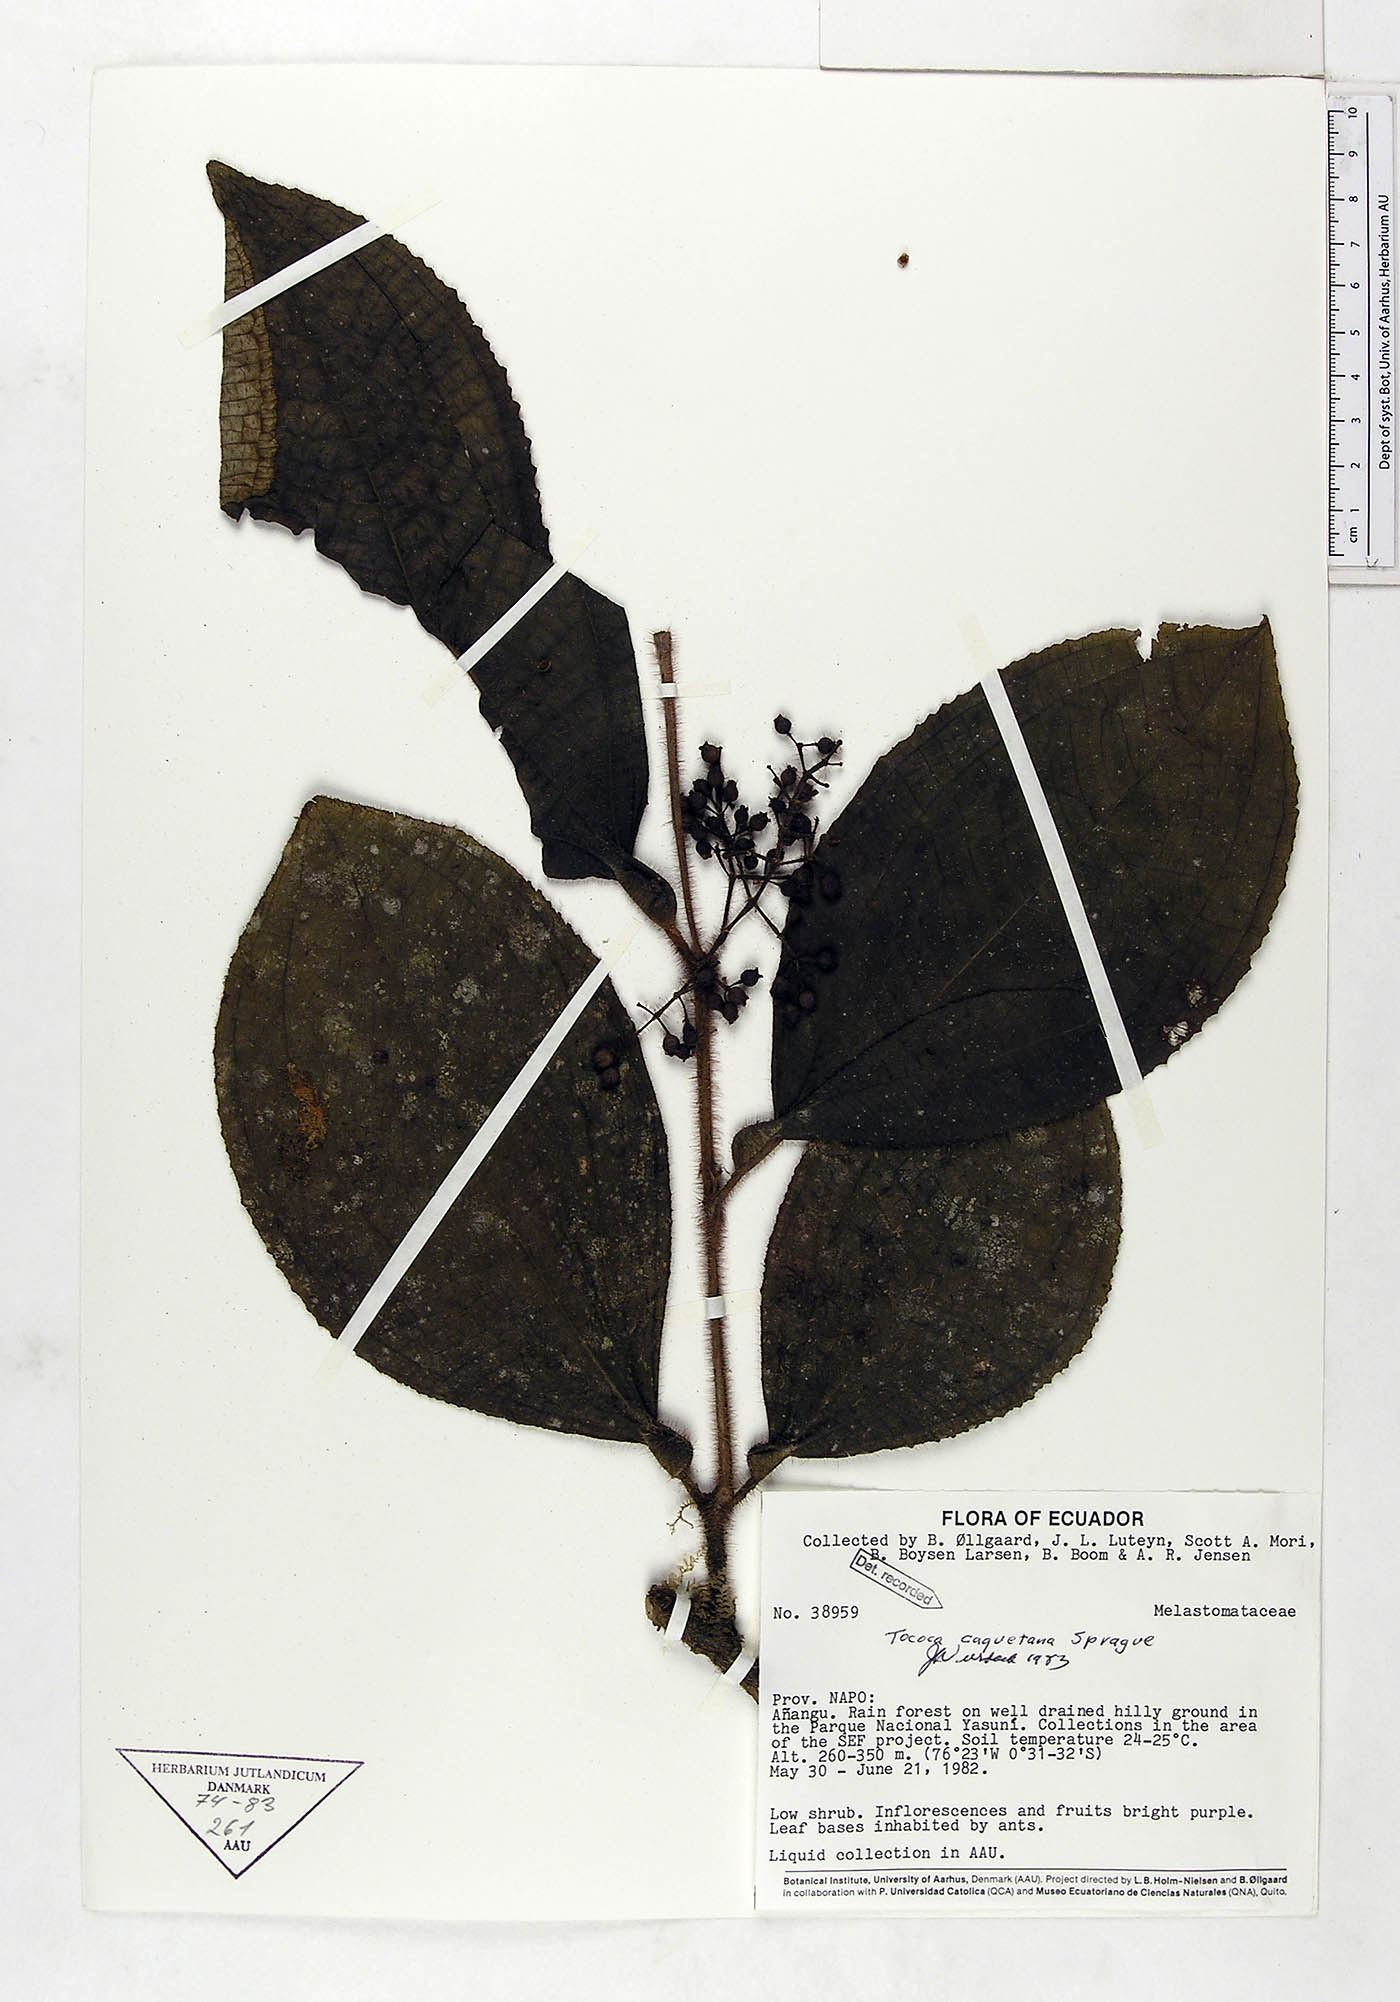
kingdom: Plantae
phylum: Tracheophyta
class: Magnoliopsida
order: Myrtales
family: Melastomataceae
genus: Miconia
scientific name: Miconia caquetana
